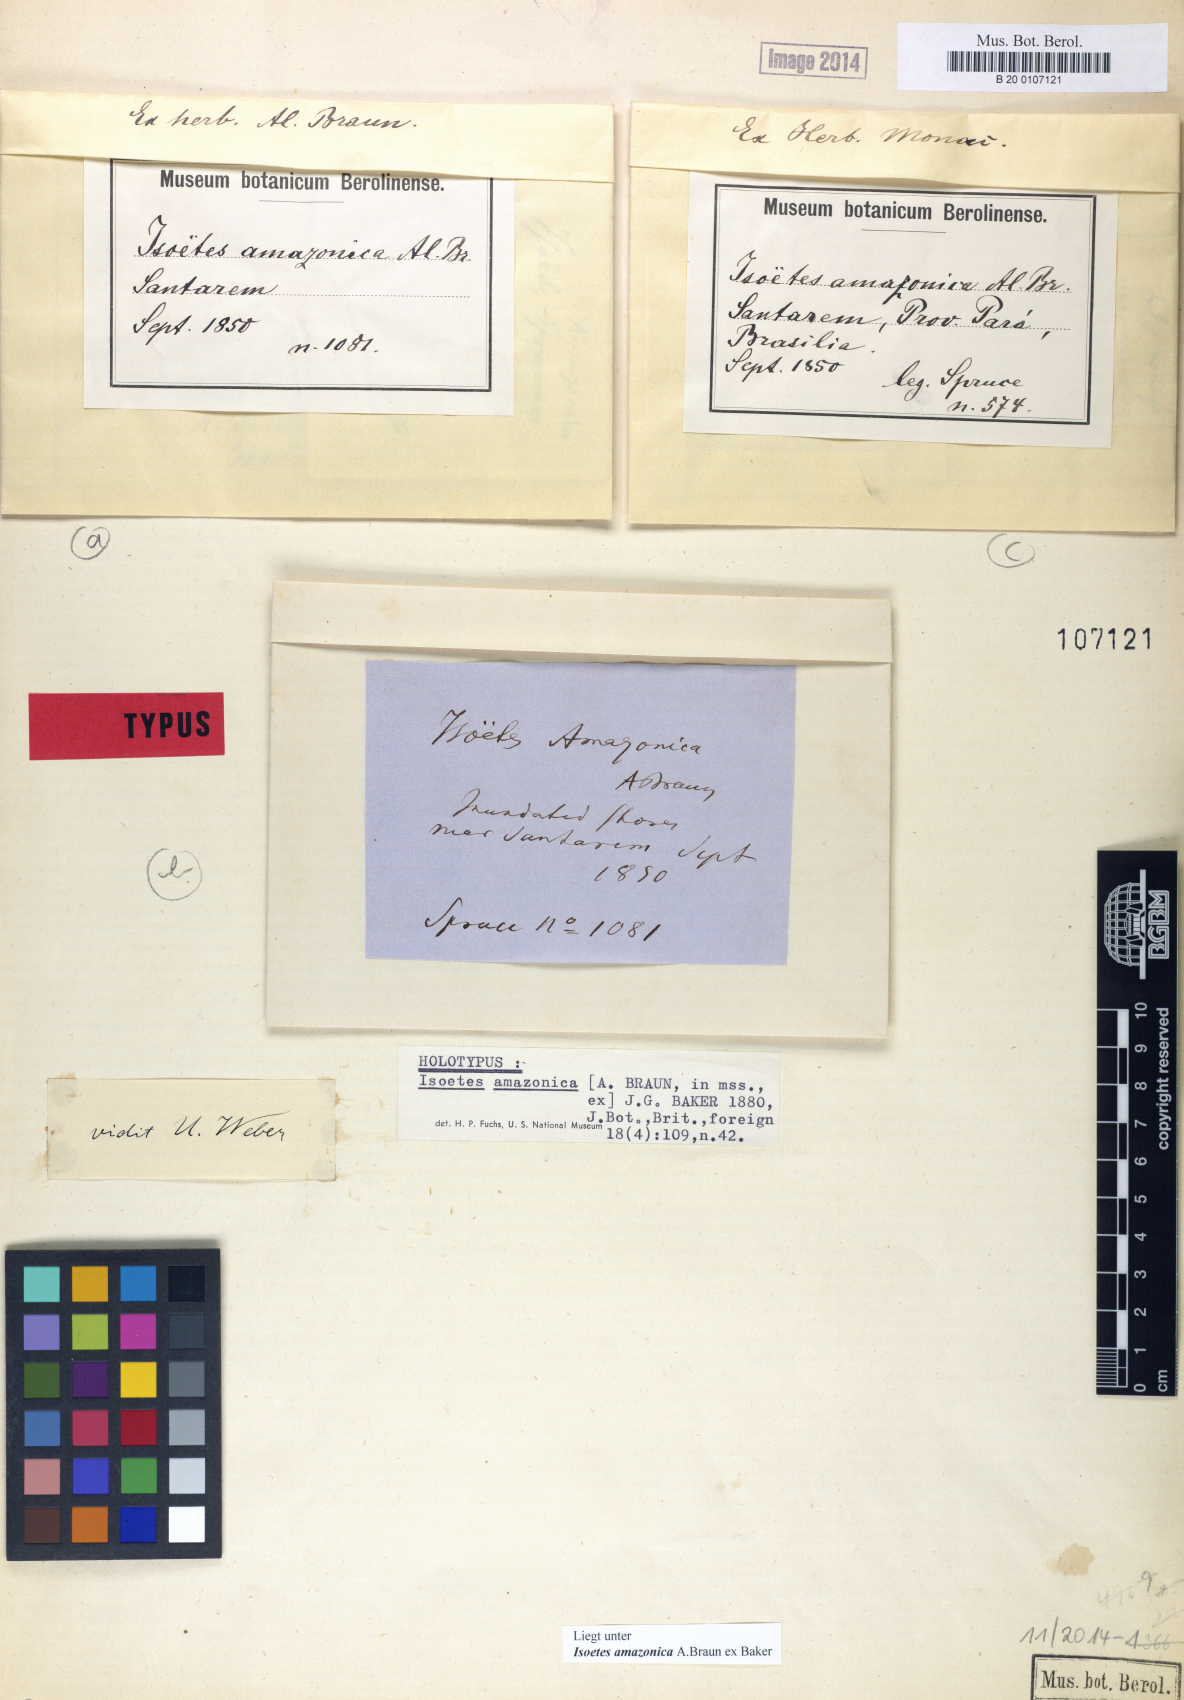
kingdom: Plantae
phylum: Tracheophyta
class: Lycopodiopsida
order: Isoetales
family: Isoetaceae
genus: Isoetes
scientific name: Isoetes amazonica
